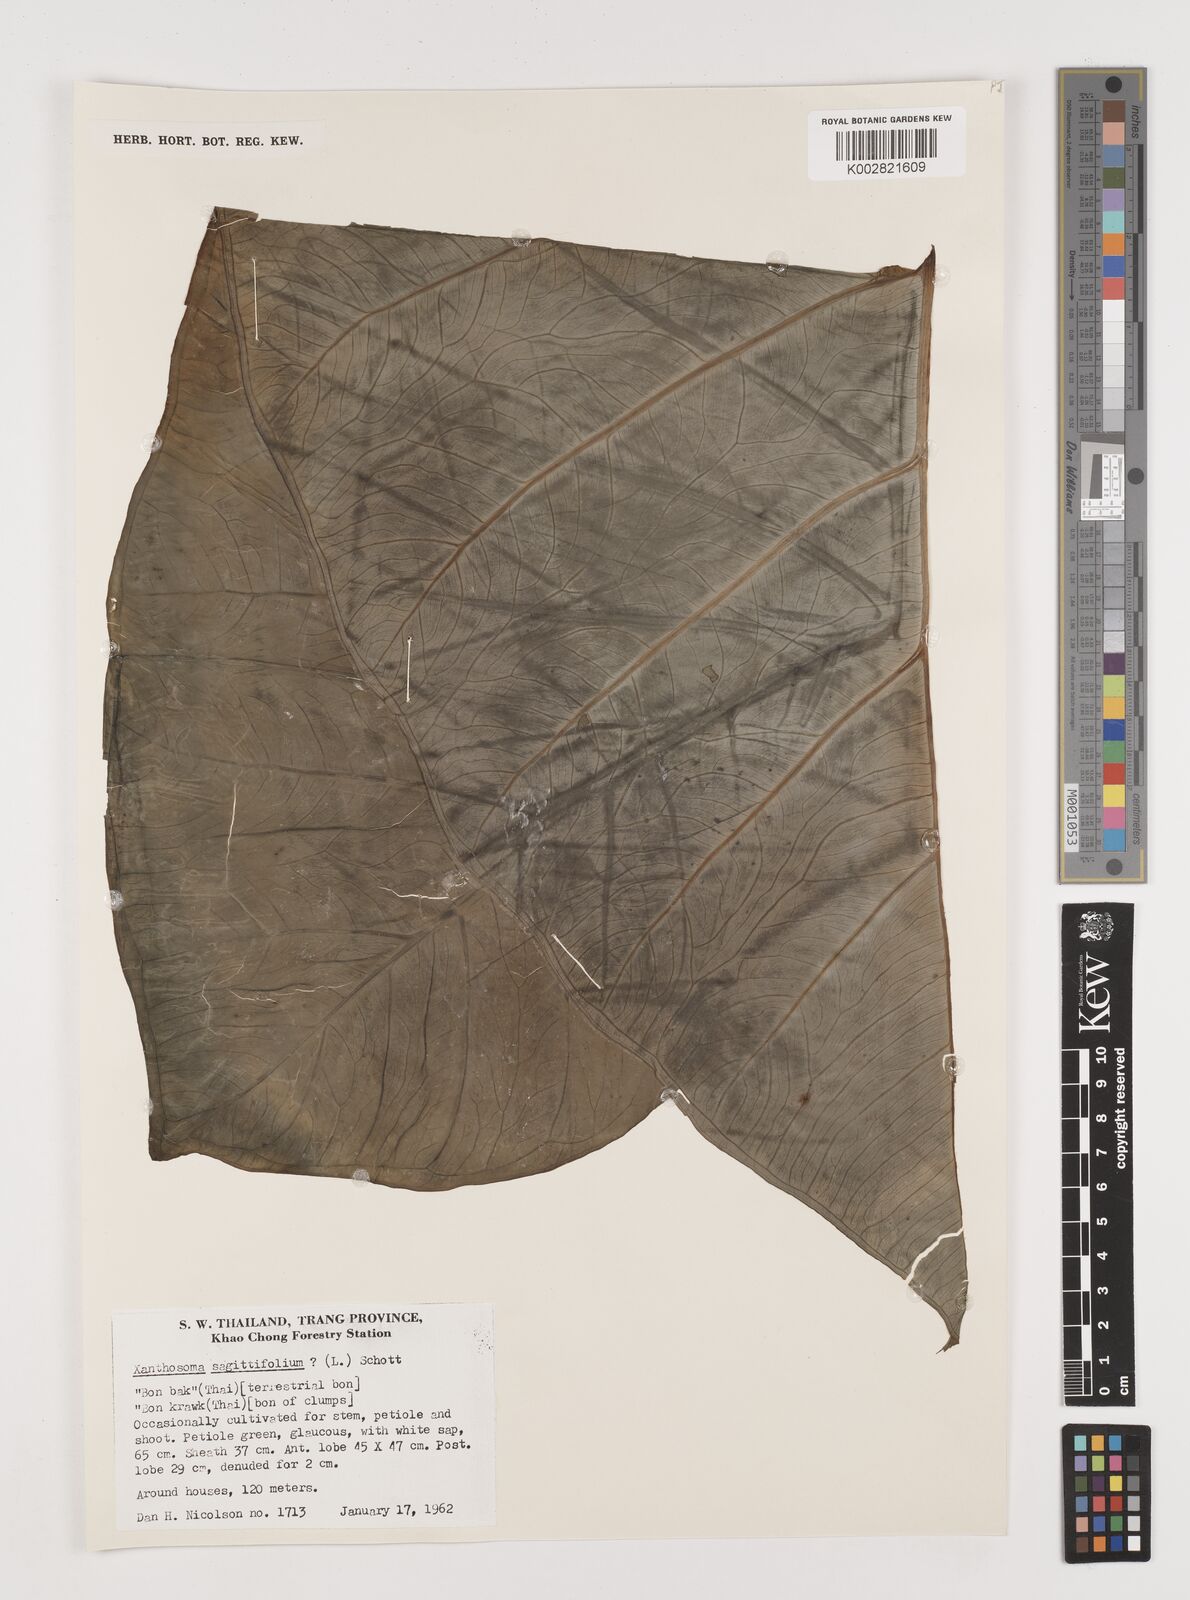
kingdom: Plantae
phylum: Tracheophyta
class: Liliopsida
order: Alismatales
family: Araceae
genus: Xanthosoma
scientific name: Xanthosoma sagittifolium
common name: Arrowleaf elephant's ear
